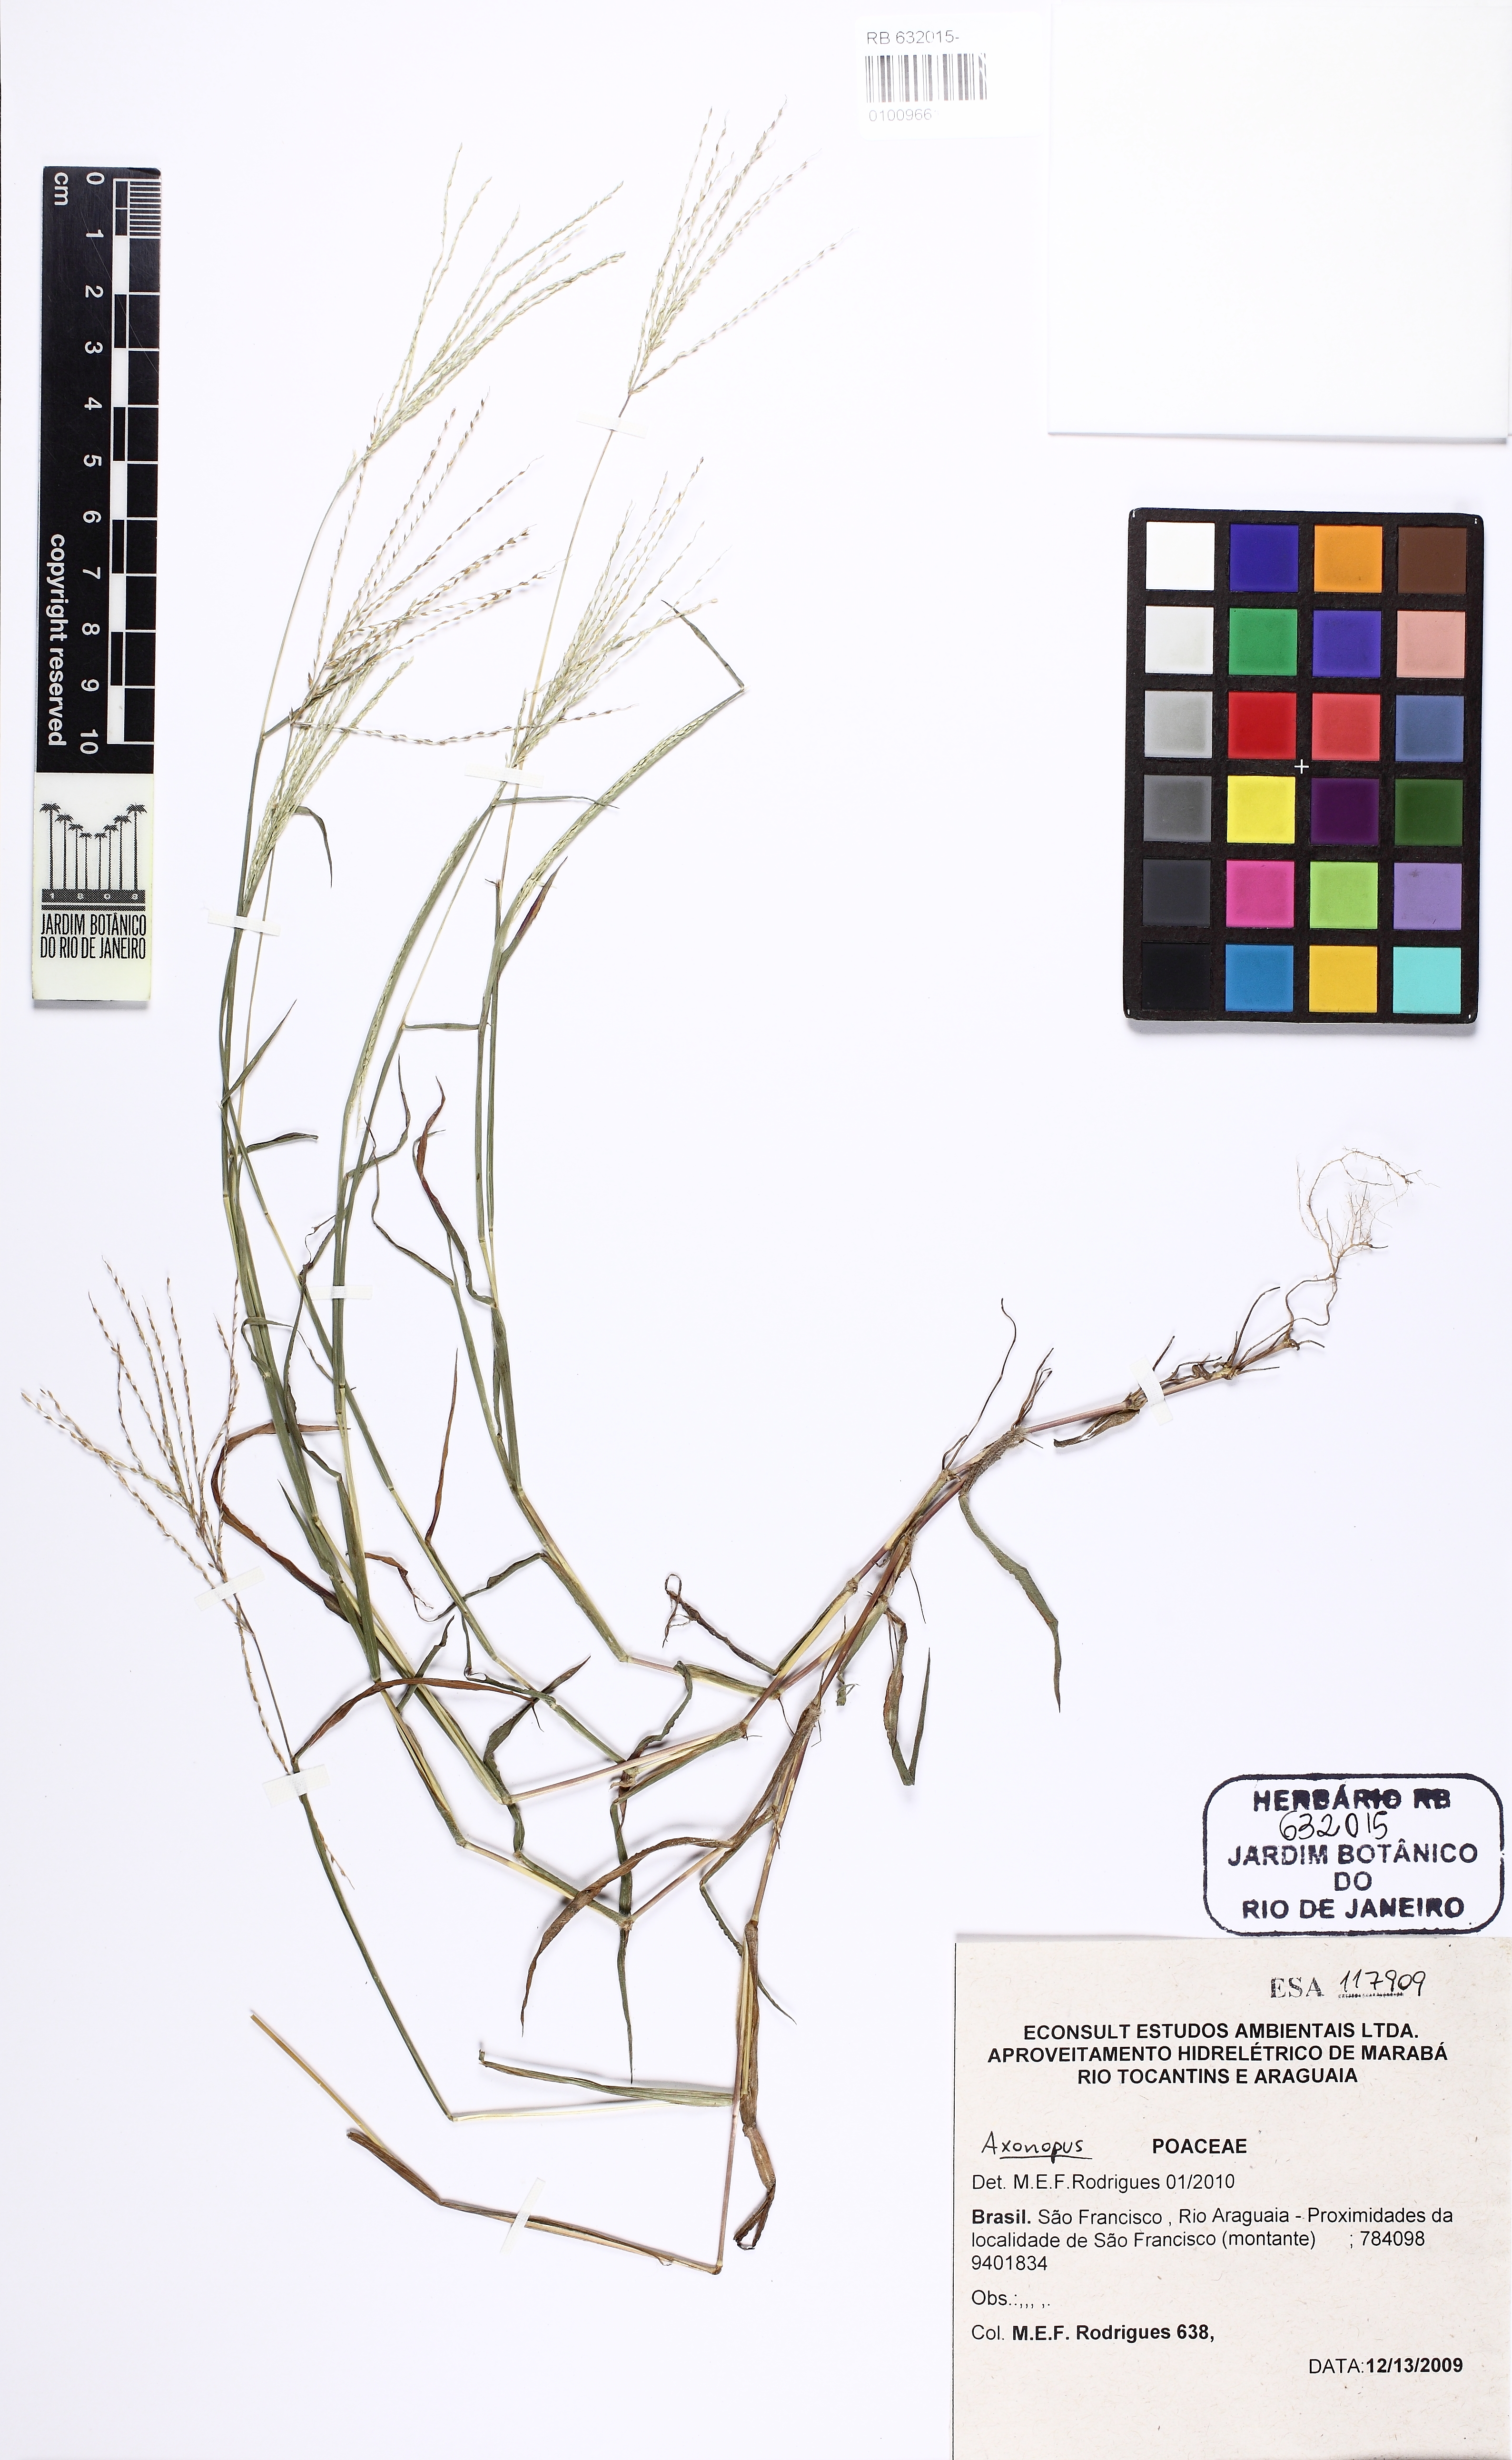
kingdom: Plantae
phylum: Tracheophyta
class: Liliopsida
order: Poales
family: Poaceae
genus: Axonopus
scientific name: Axonopus
